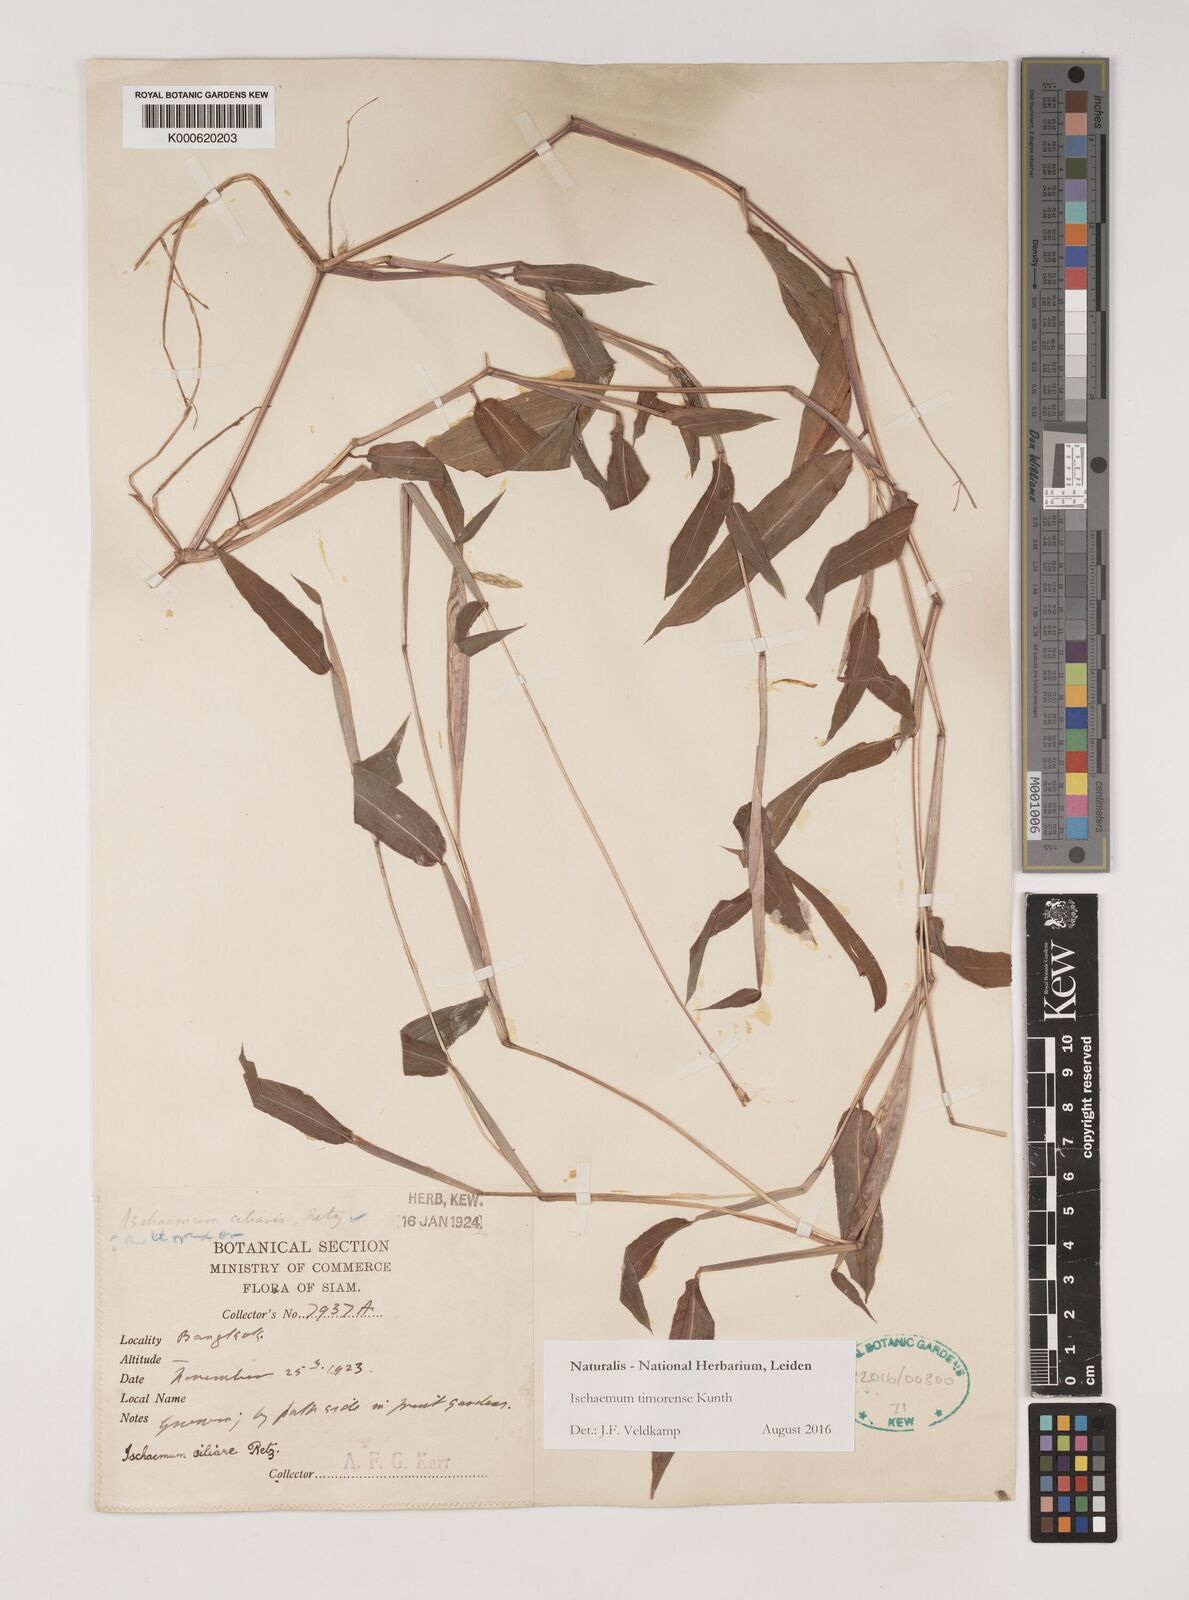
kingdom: Plantae
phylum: Tracheophyta
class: Liliopsida
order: Poales
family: Poaceae
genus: Ischaemum
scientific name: Ischaemum timorense
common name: Stalkleaf murainagrass
